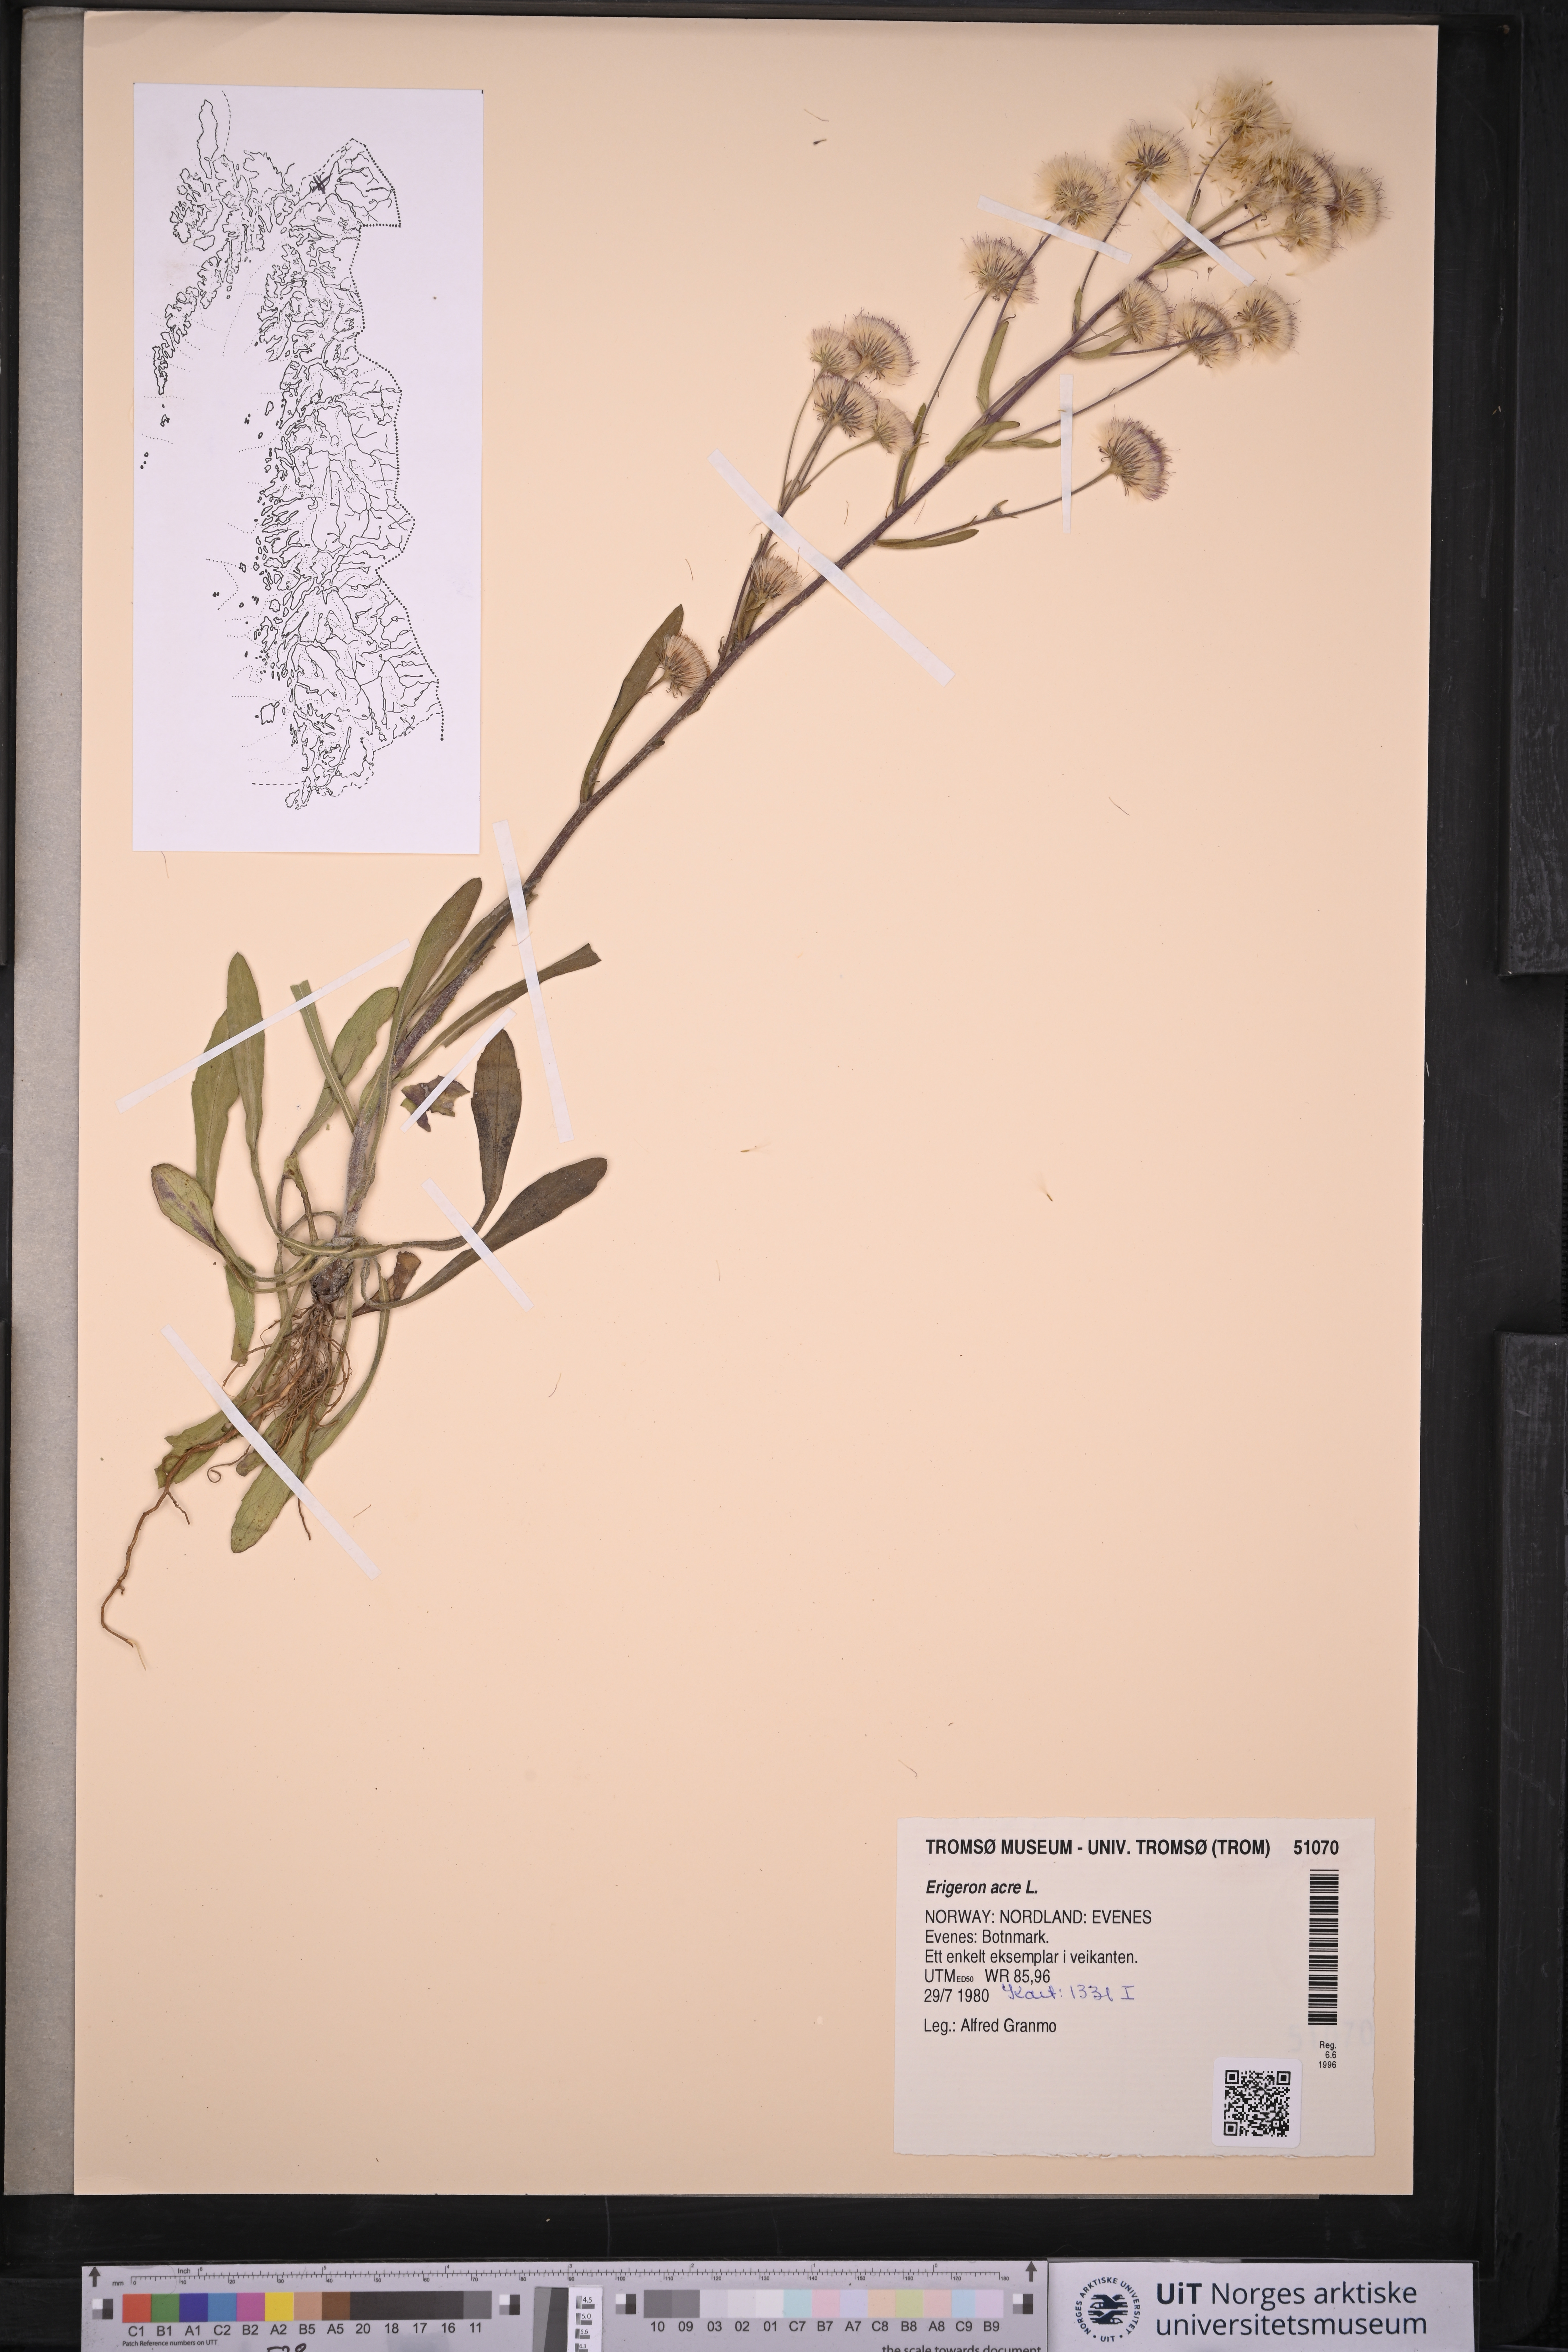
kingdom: Plantae
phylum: Tracheophyta
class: Magnoliopsida
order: Asterales
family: Asteraceae
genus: Erigeron
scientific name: Erigeron acris
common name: Blue fleabane
